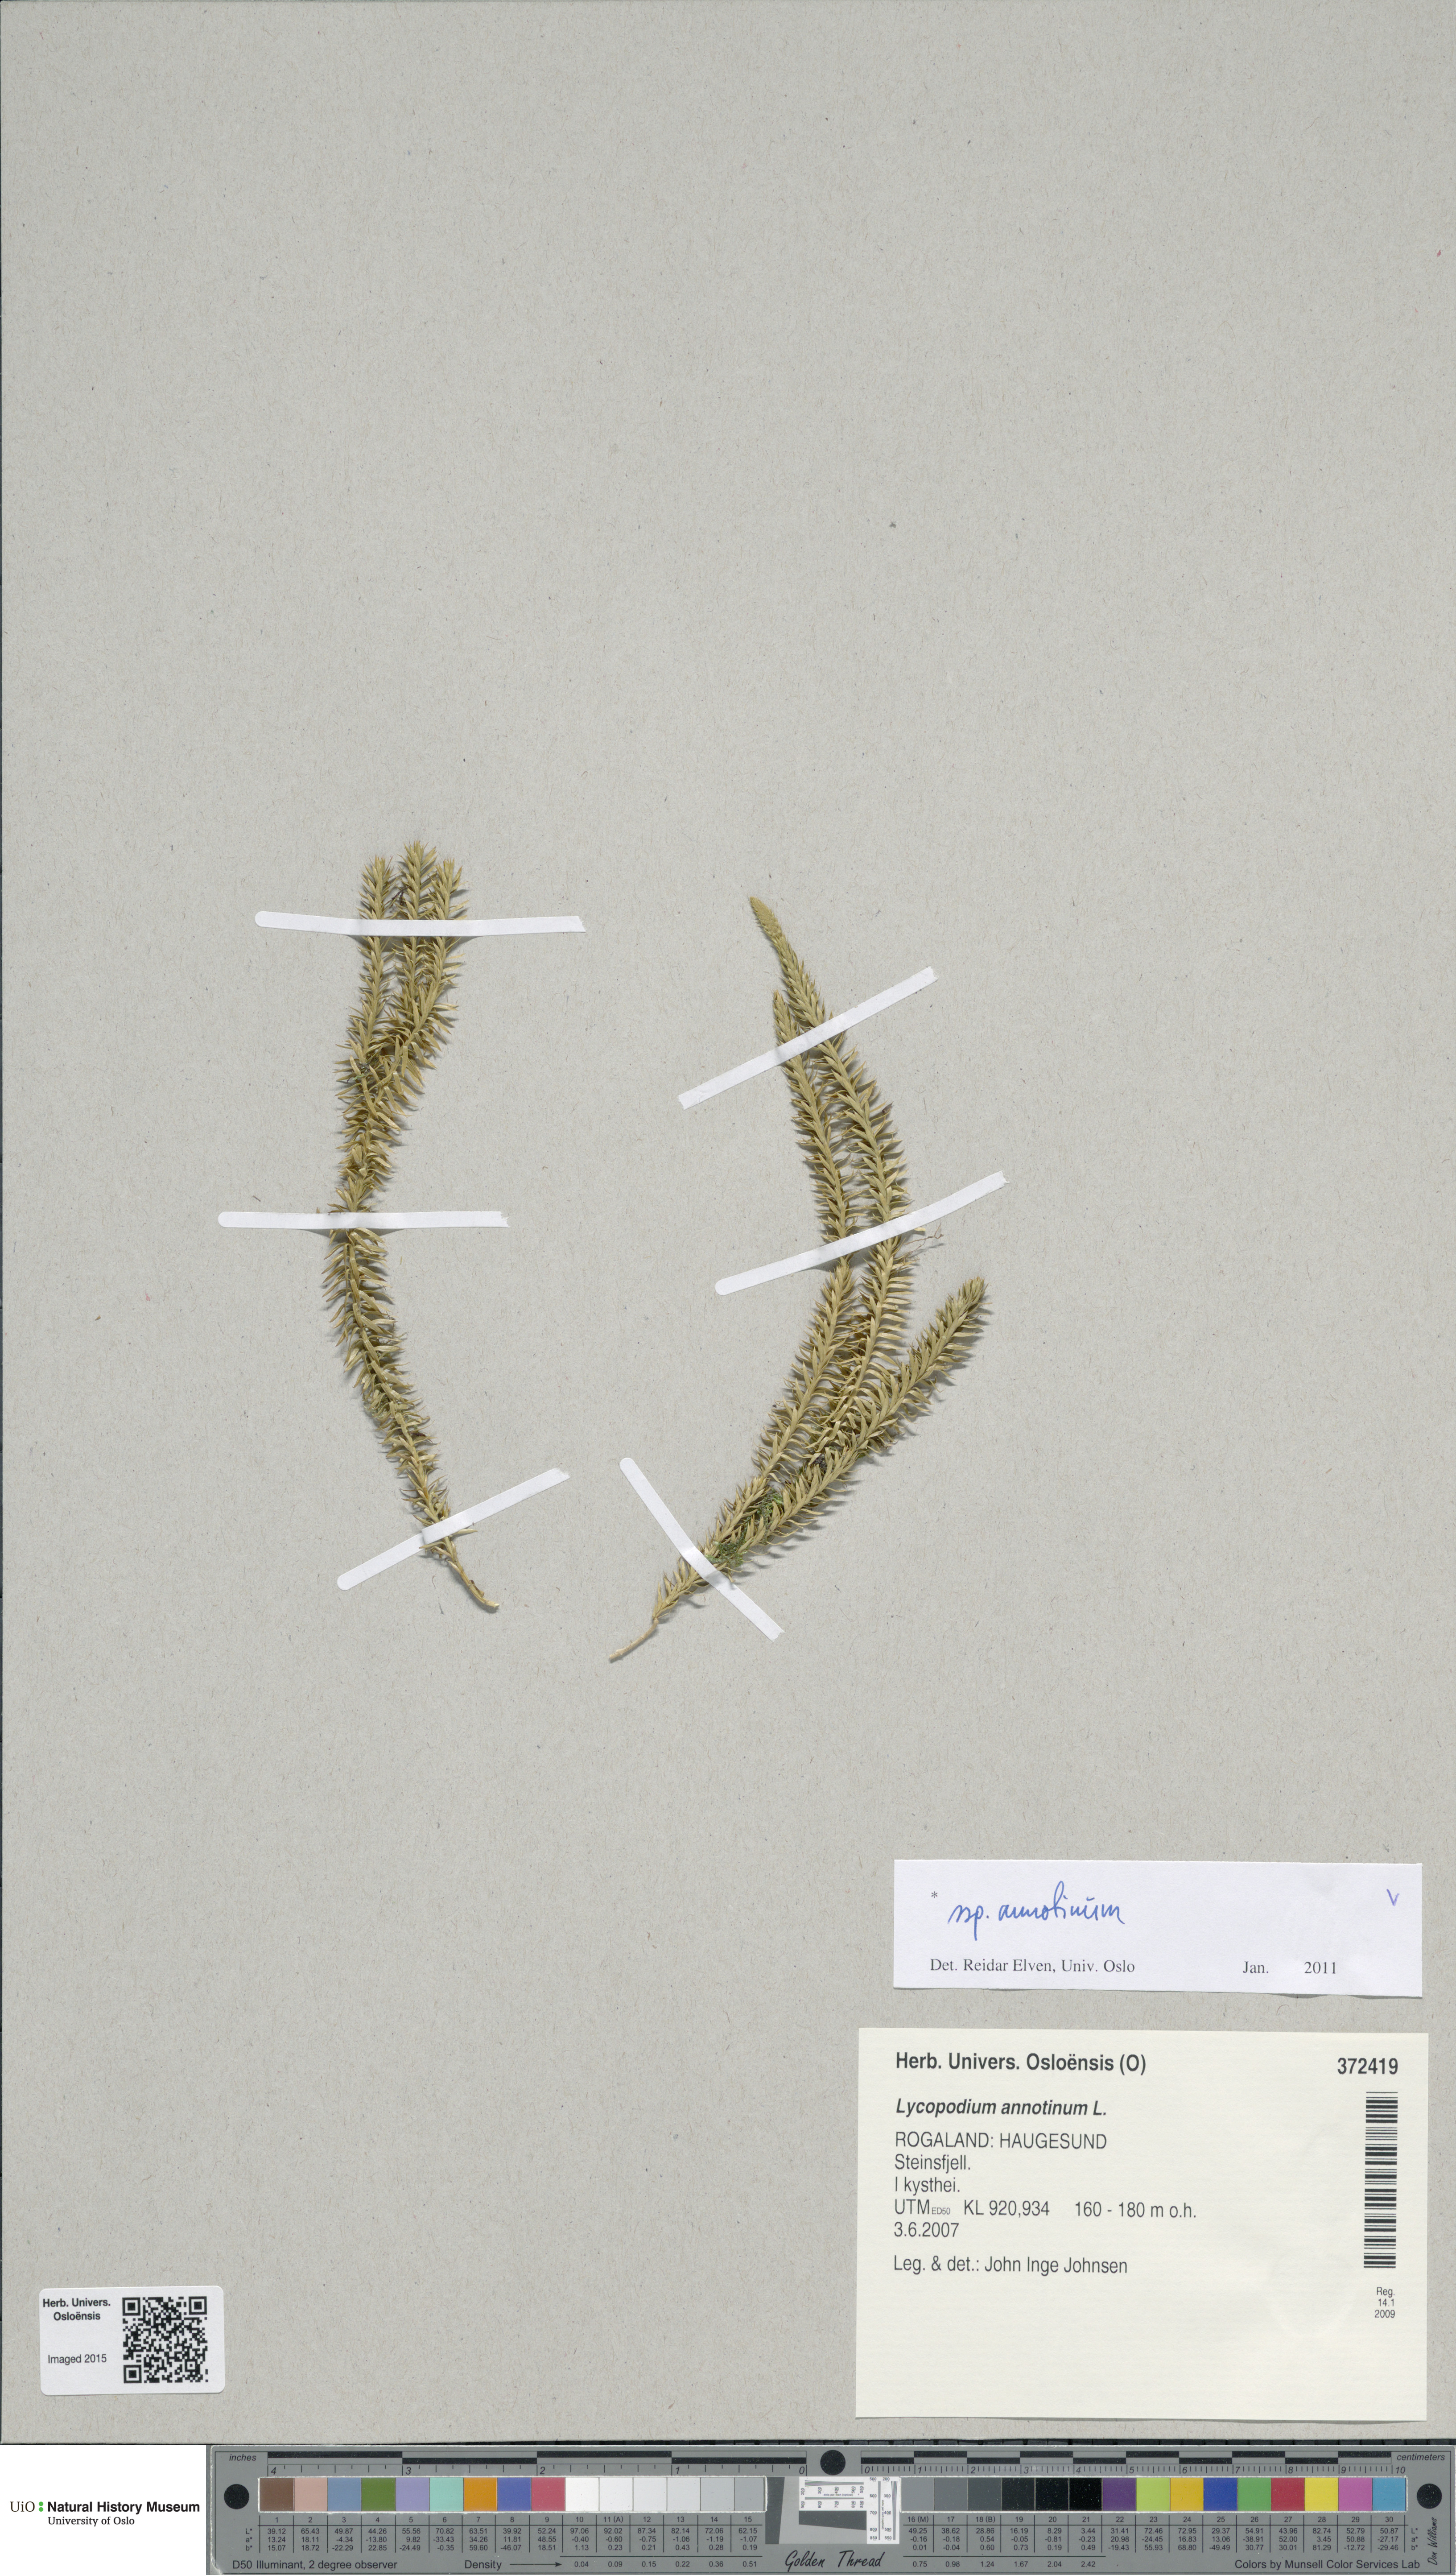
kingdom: Plantae
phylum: Tracheophyta
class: Lycopodiopsida
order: Lycopodiales
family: Lycopodiaceae
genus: Spinulum
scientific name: Spinulum annotinum
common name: Interrupted club-moss
